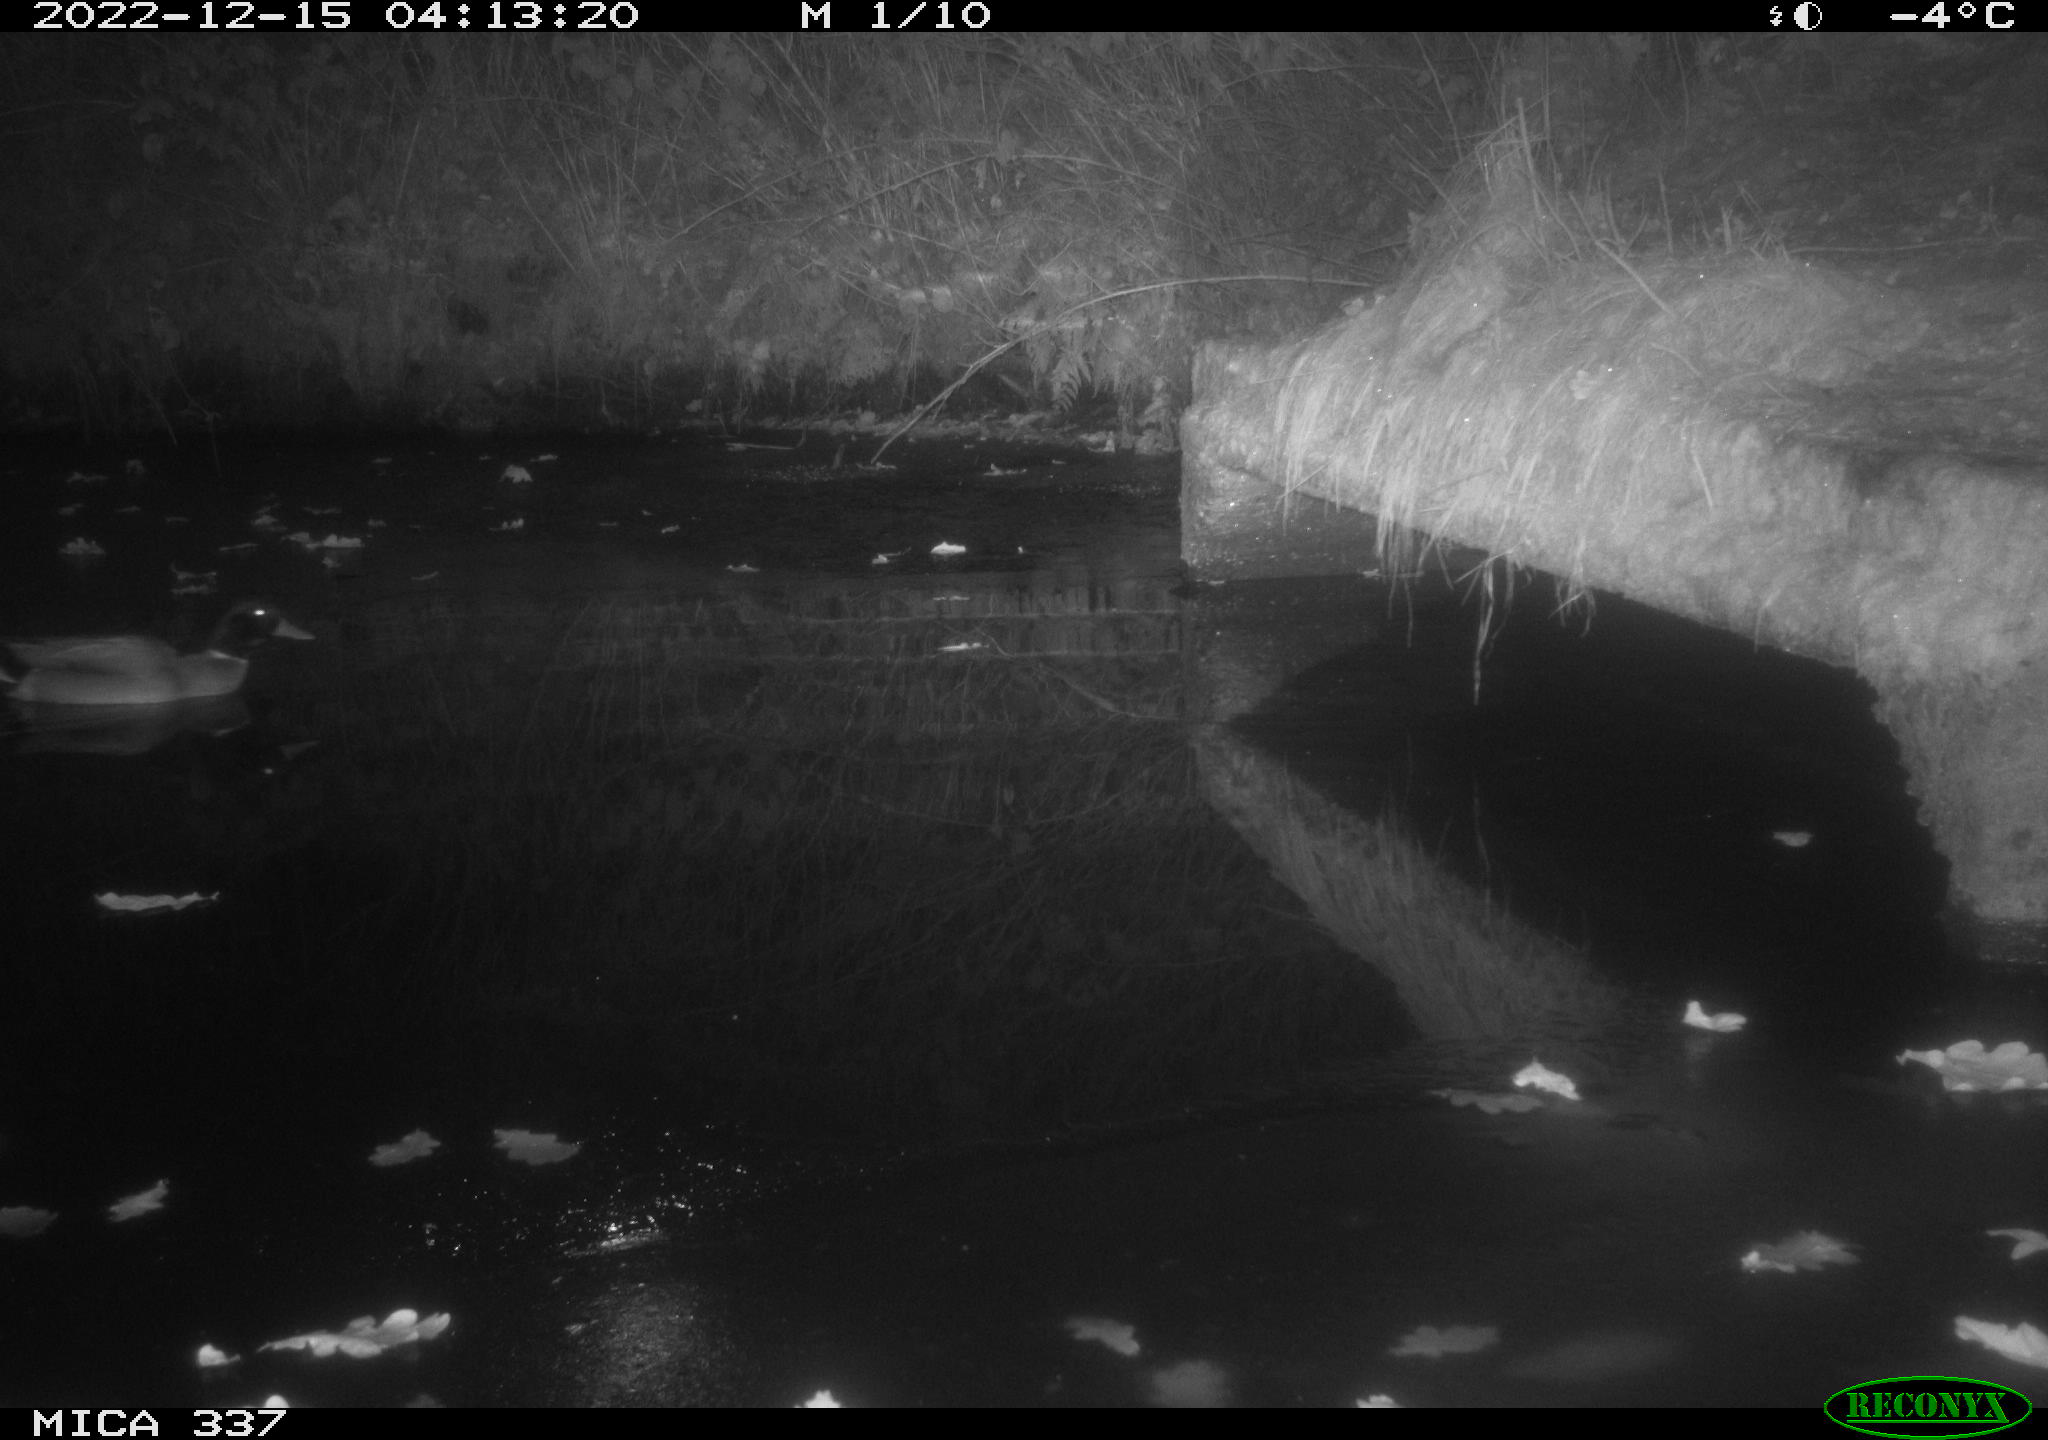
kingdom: Animalia
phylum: Chordata
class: Aves
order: Anseriformes
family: Anatidae
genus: Anas
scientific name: Anas platyrhynchos
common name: Mallard
